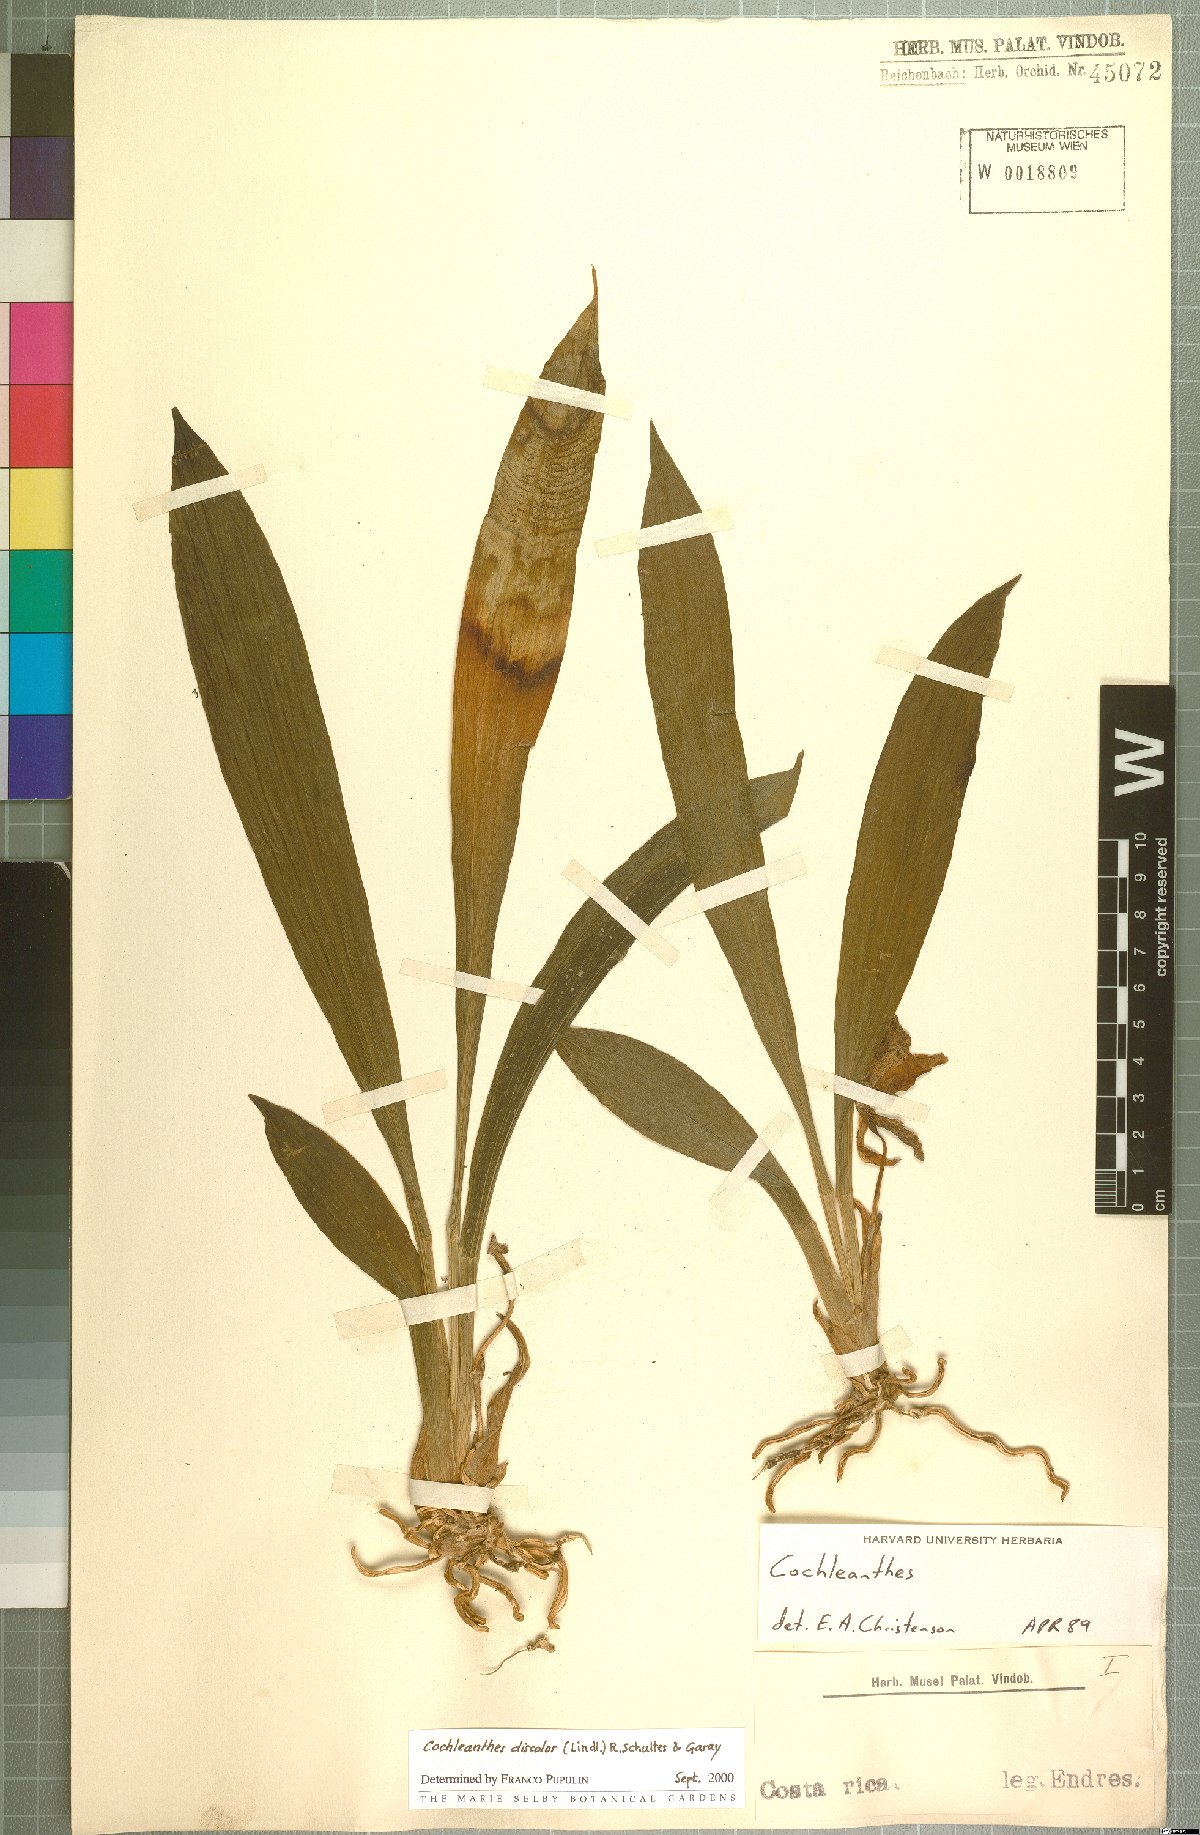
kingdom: Plantae
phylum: Tracheophyta
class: Liliopsida
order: Asparagales
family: Orchidaceae
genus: Warczewiczella
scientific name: Warczewiczella discolor
